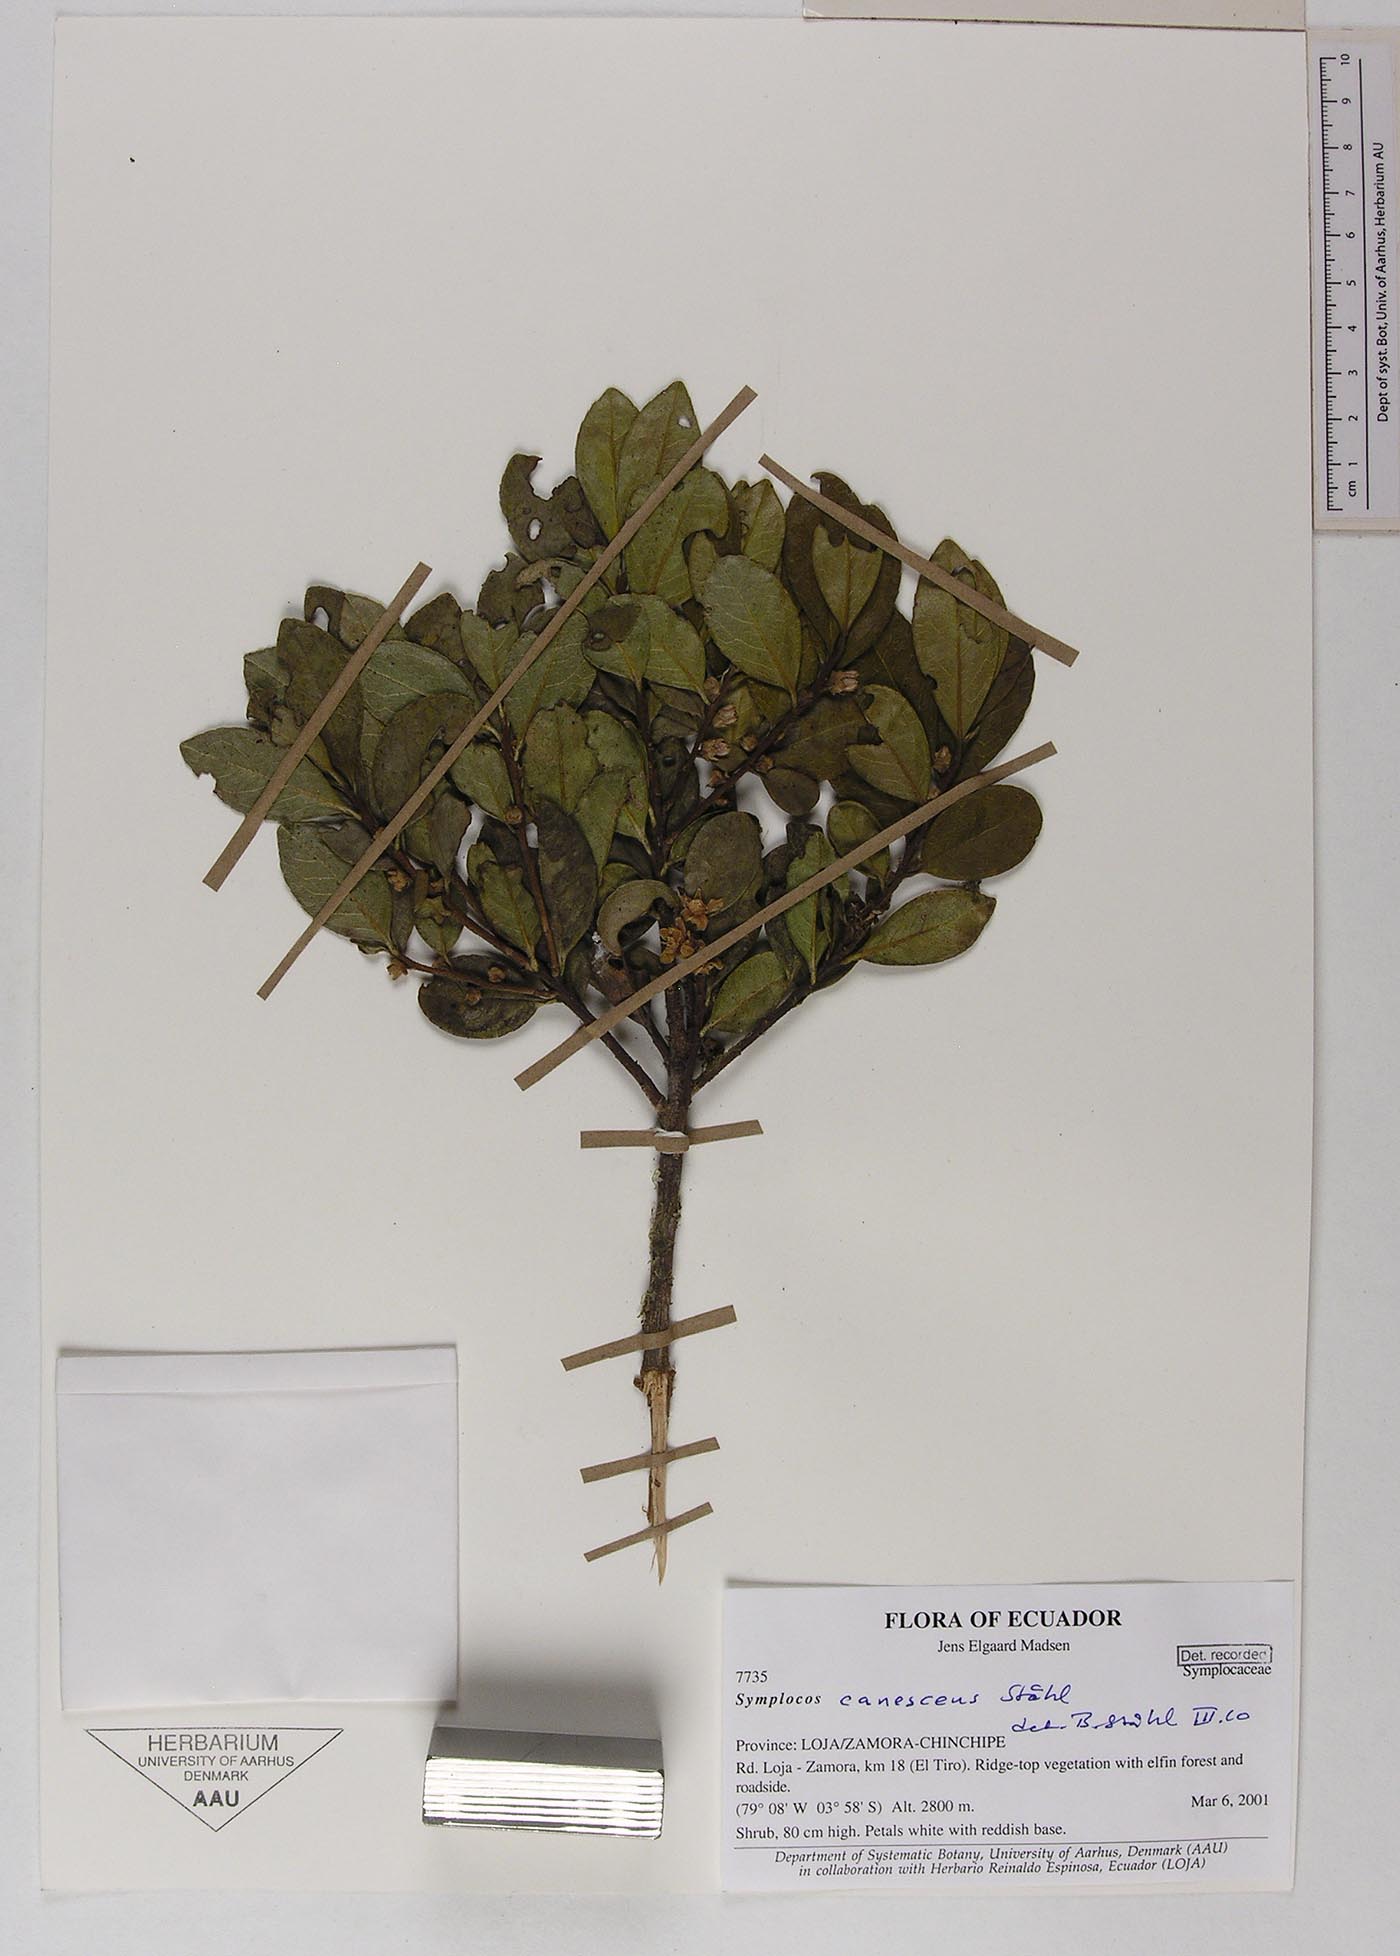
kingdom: Plantae
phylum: Tracheophyta
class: Magnoliopsida
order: Ericales
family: Symplocaceae
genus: Symplocos
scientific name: Symplocos canescens
